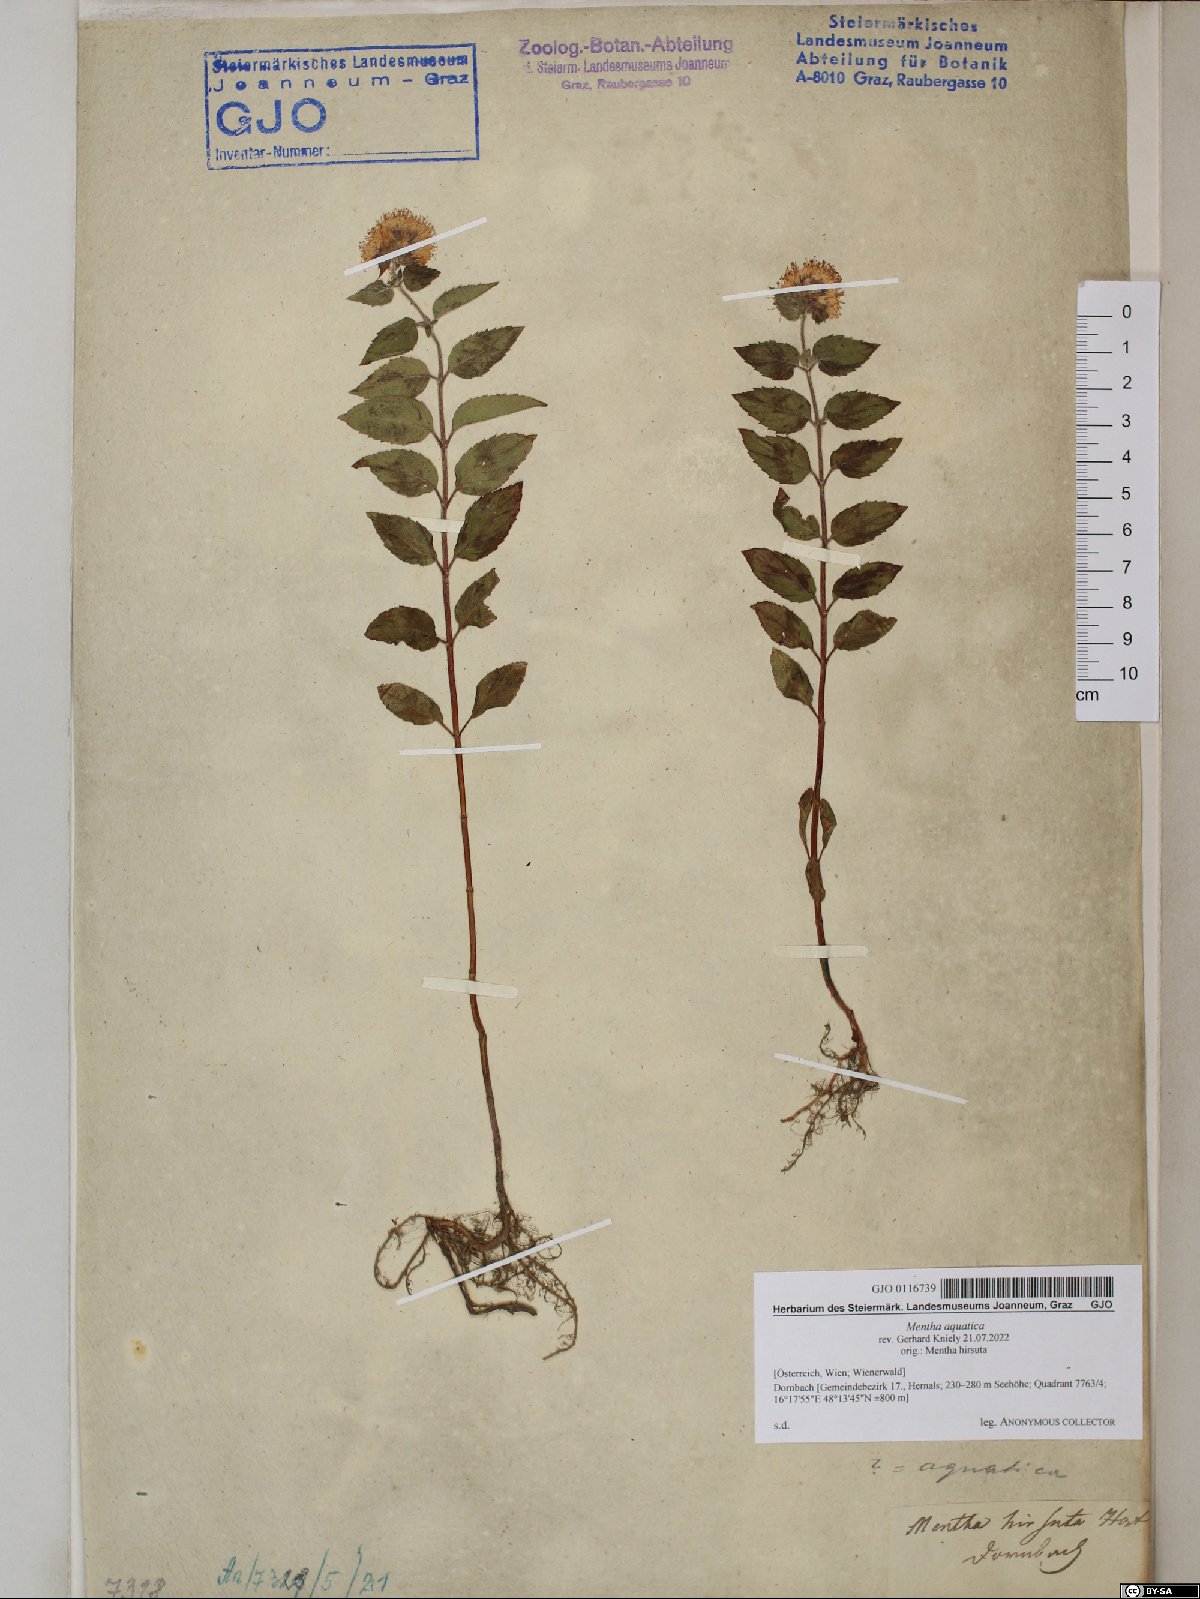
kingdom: Plantae
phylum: Tracheophyta
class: Magnoliopsida
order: Lamiales
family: Lamiaceae
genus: Mentha
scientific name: Mentha aquatica
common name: Water mint
